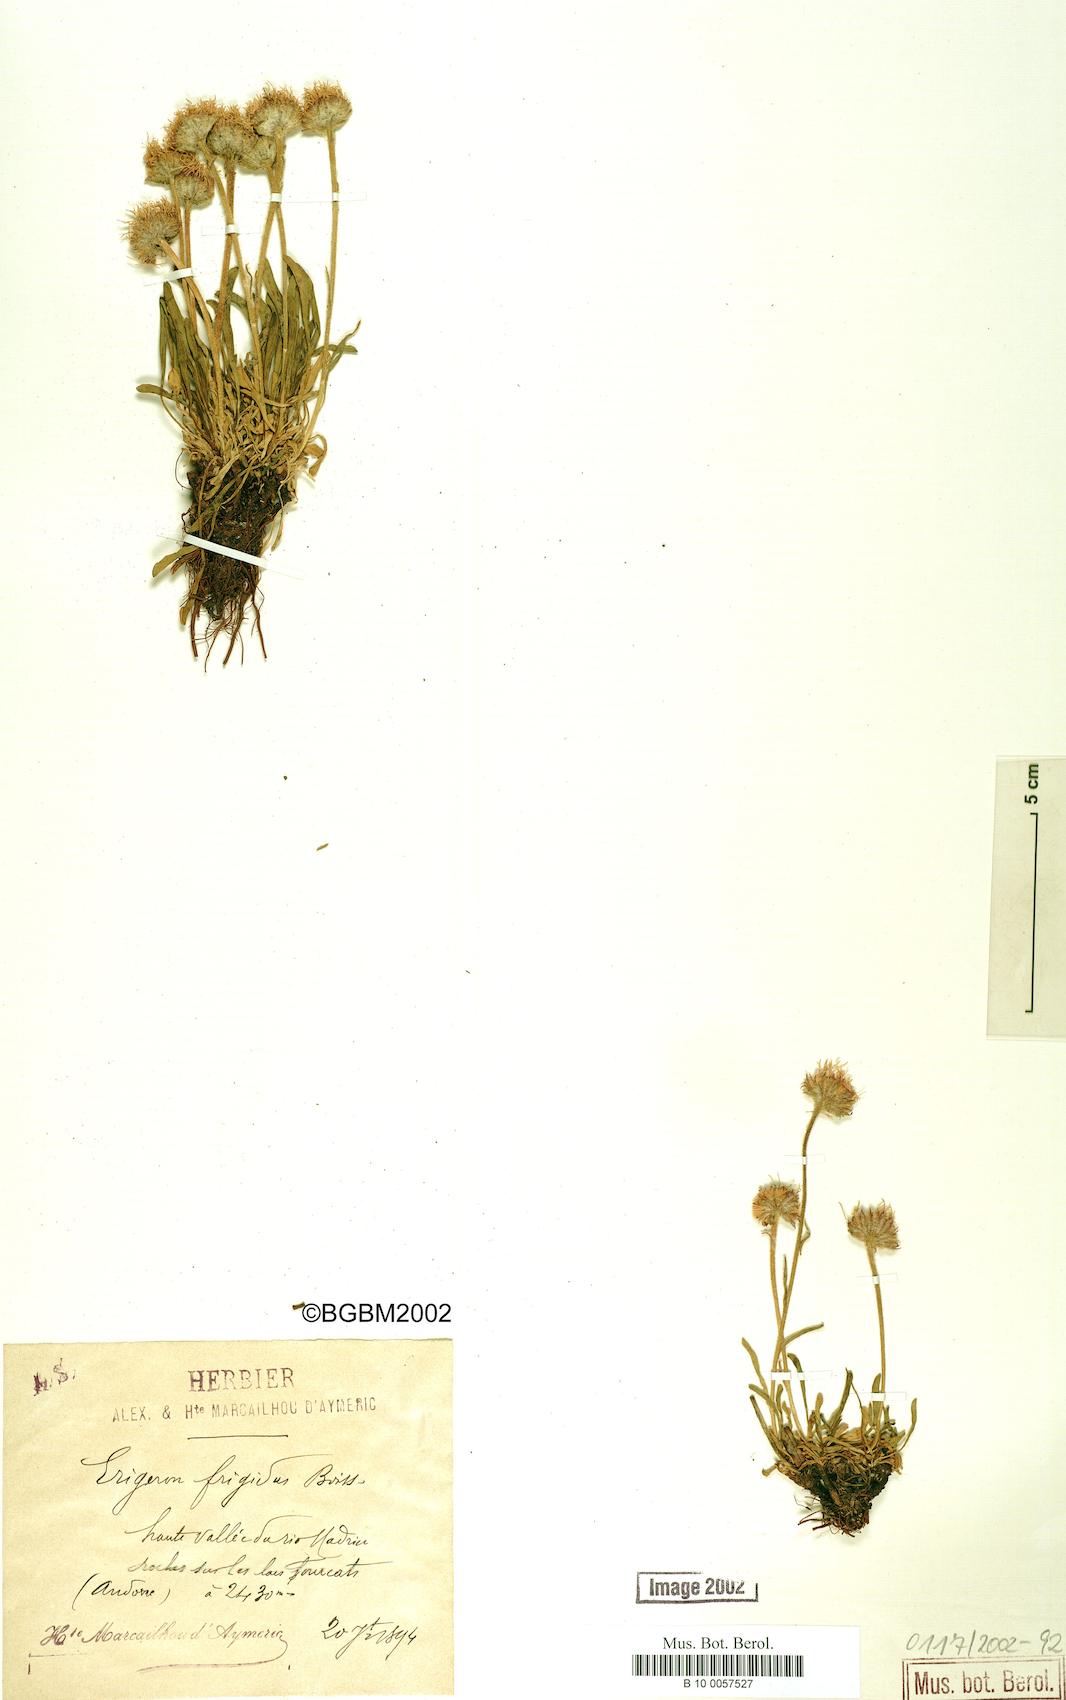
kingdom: Plantae
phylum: Tracheophyta
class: Magnoliopsida
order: Asterales
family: Asteraceae
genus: Erigeron
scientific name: Erigeron aragonensis
